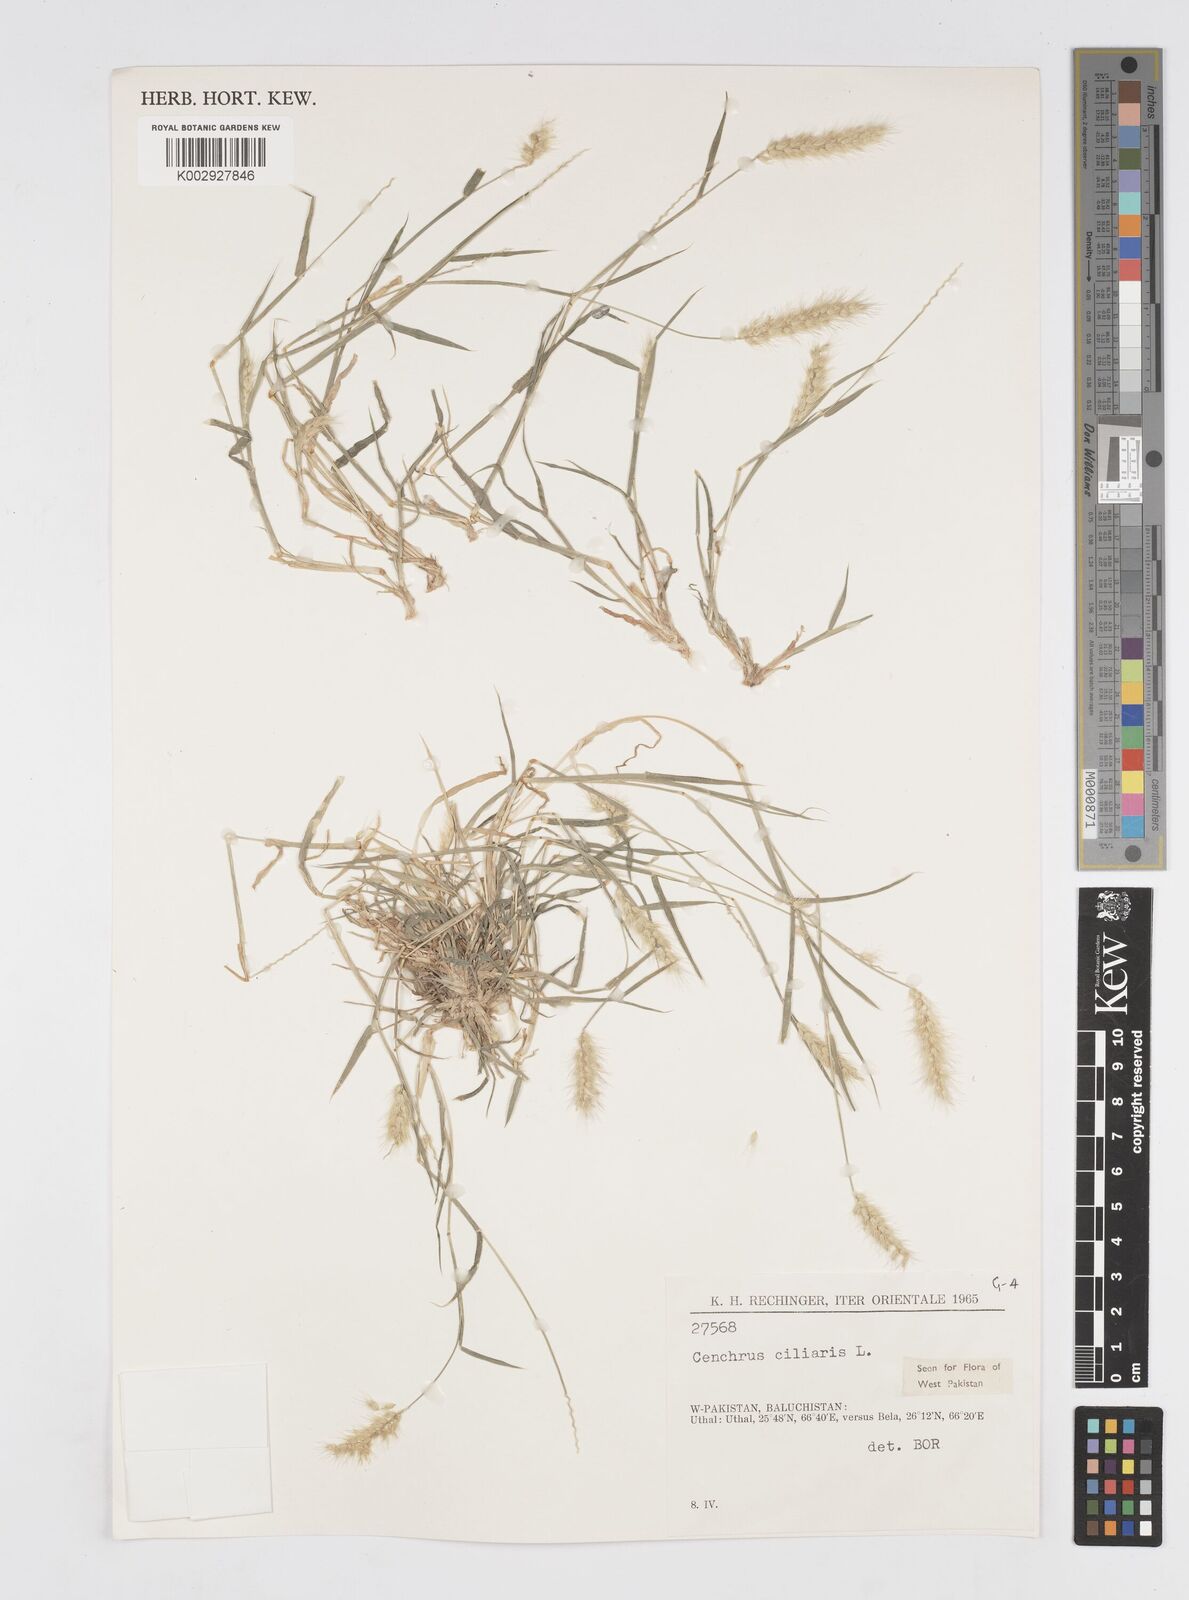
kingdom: Plantae
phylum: Tracheophyta
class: Liliopsida
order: Poales
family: Poaceae
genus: Cenchrus
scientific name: Cenchrus ciliaris
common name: Buffelgrass
